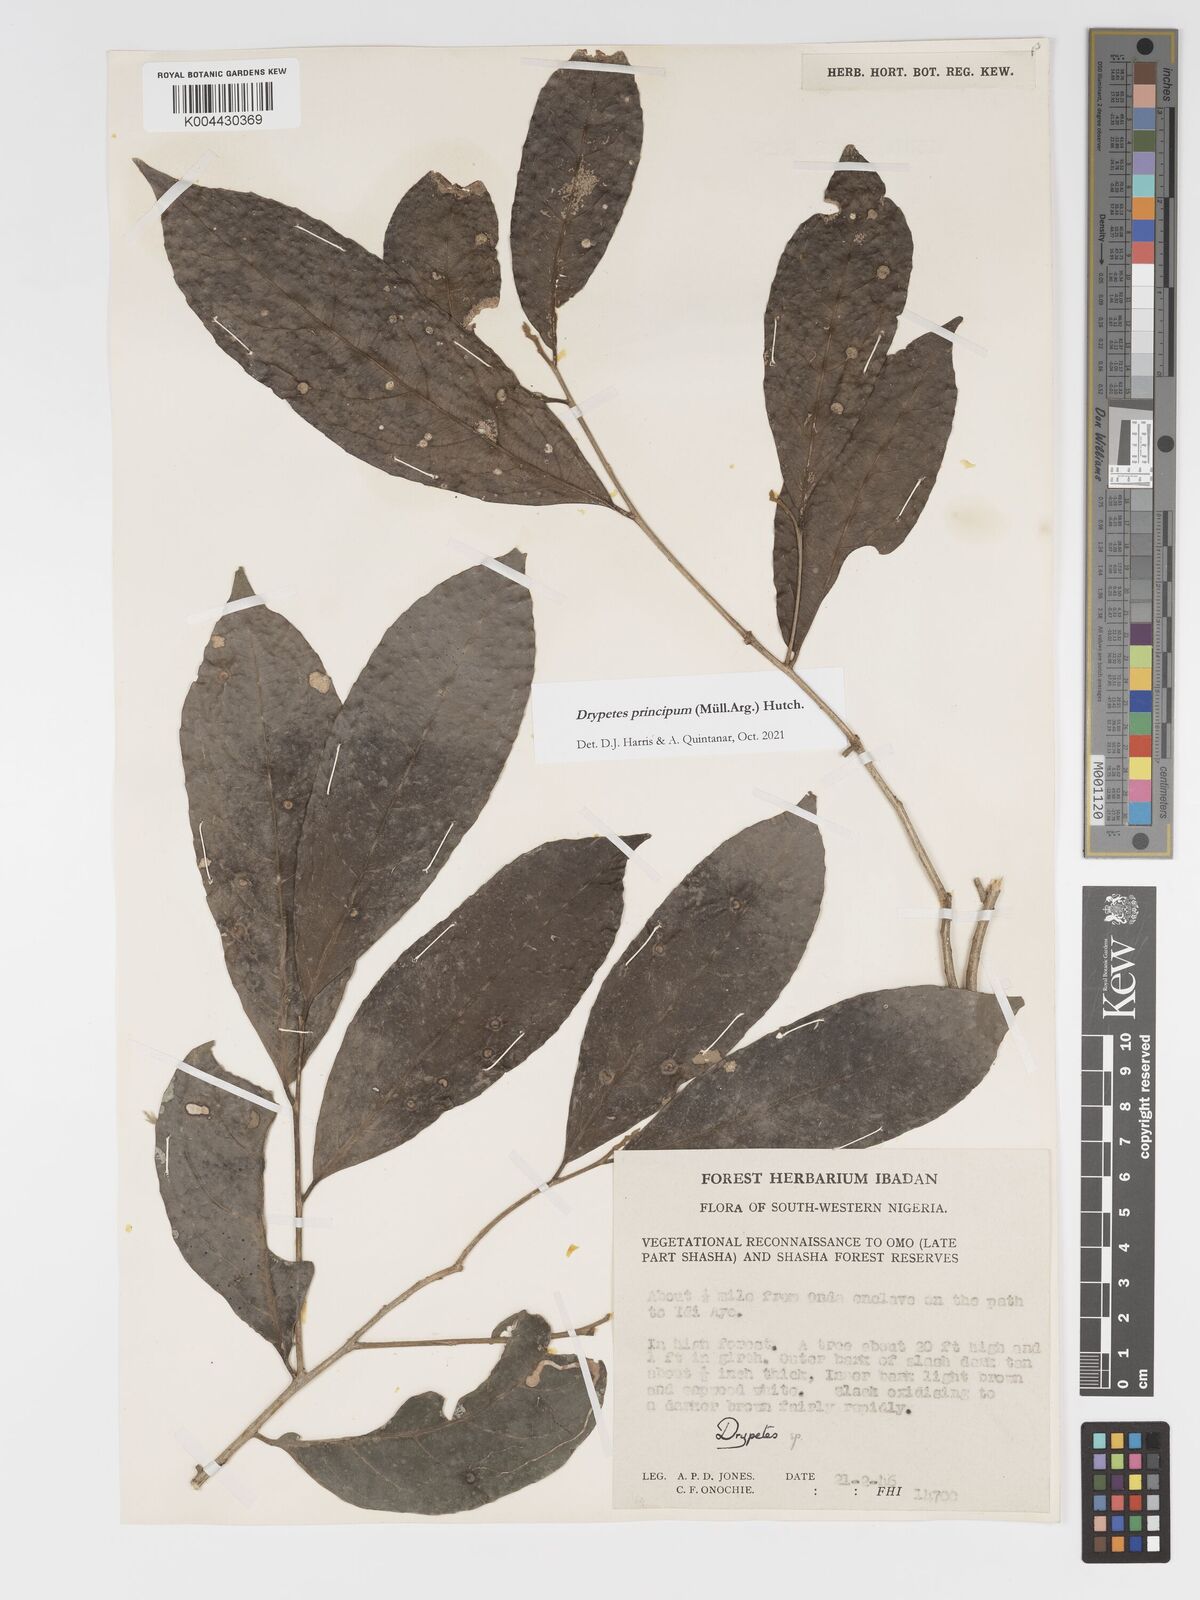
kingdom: Plantae
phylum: Tracheophyta
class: Magnoliopsida
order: Malpighiales
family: Putranjivaceae
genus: Drypetes
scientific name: Drypetes principum
